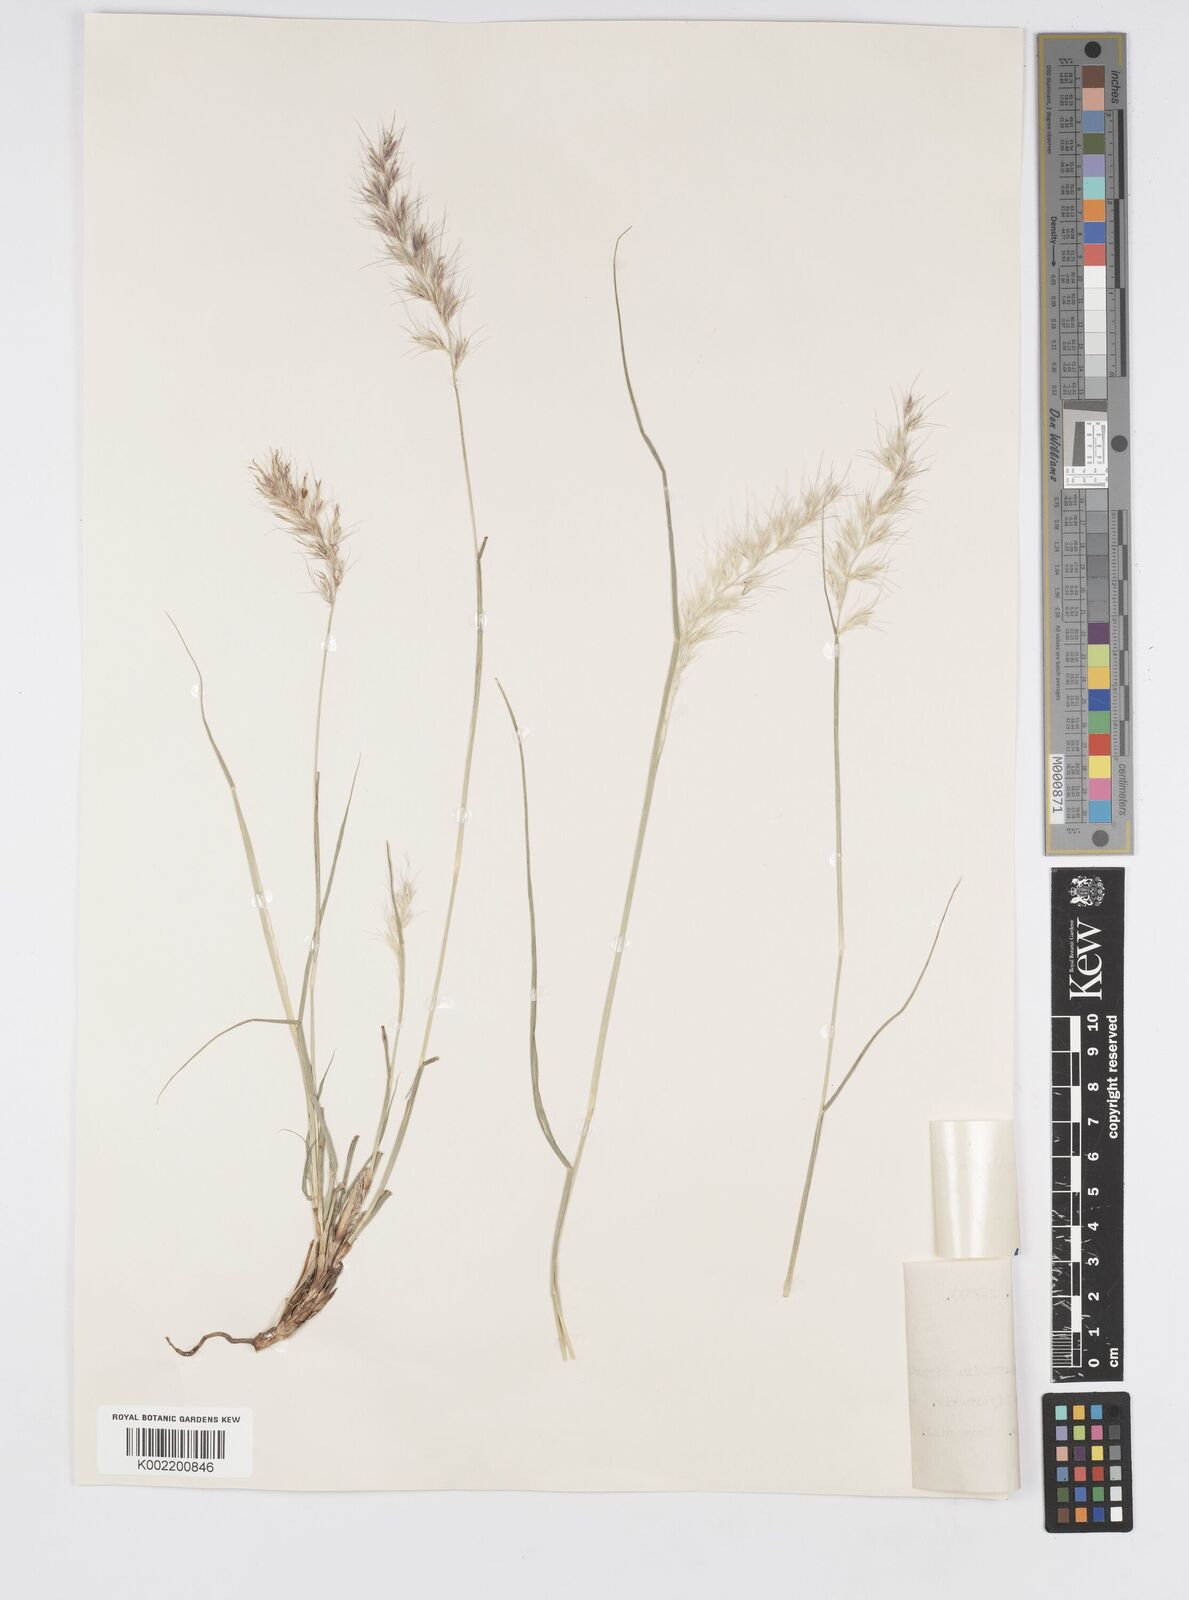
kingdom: Plantae
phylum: Tracheophyta
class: Liliopsida
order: Poales
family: Poaceae
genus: Cenchrus
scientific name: Cenchrus orientalis
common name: Oriental fountain grass
